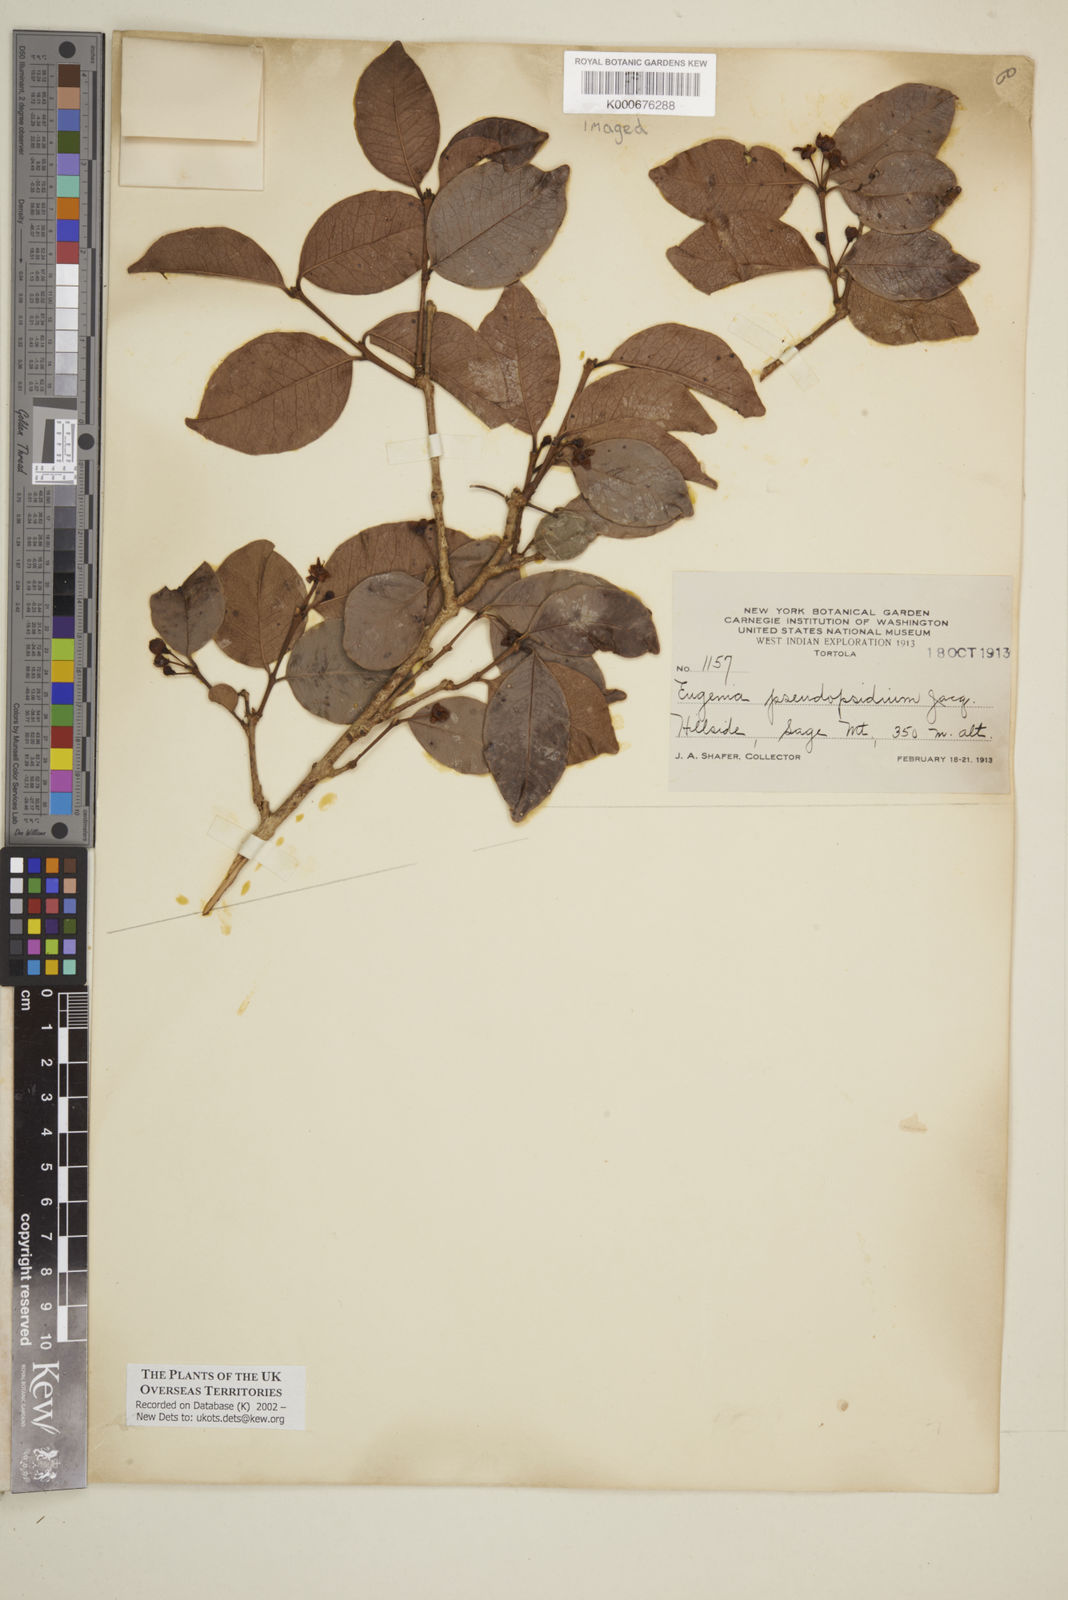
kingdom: Plantae
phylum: Tracheophyta
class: Magnoliopsida
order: Myrtales
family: Myrtaceae
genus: Eugenia
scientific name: Eugenia pseudopsidium
